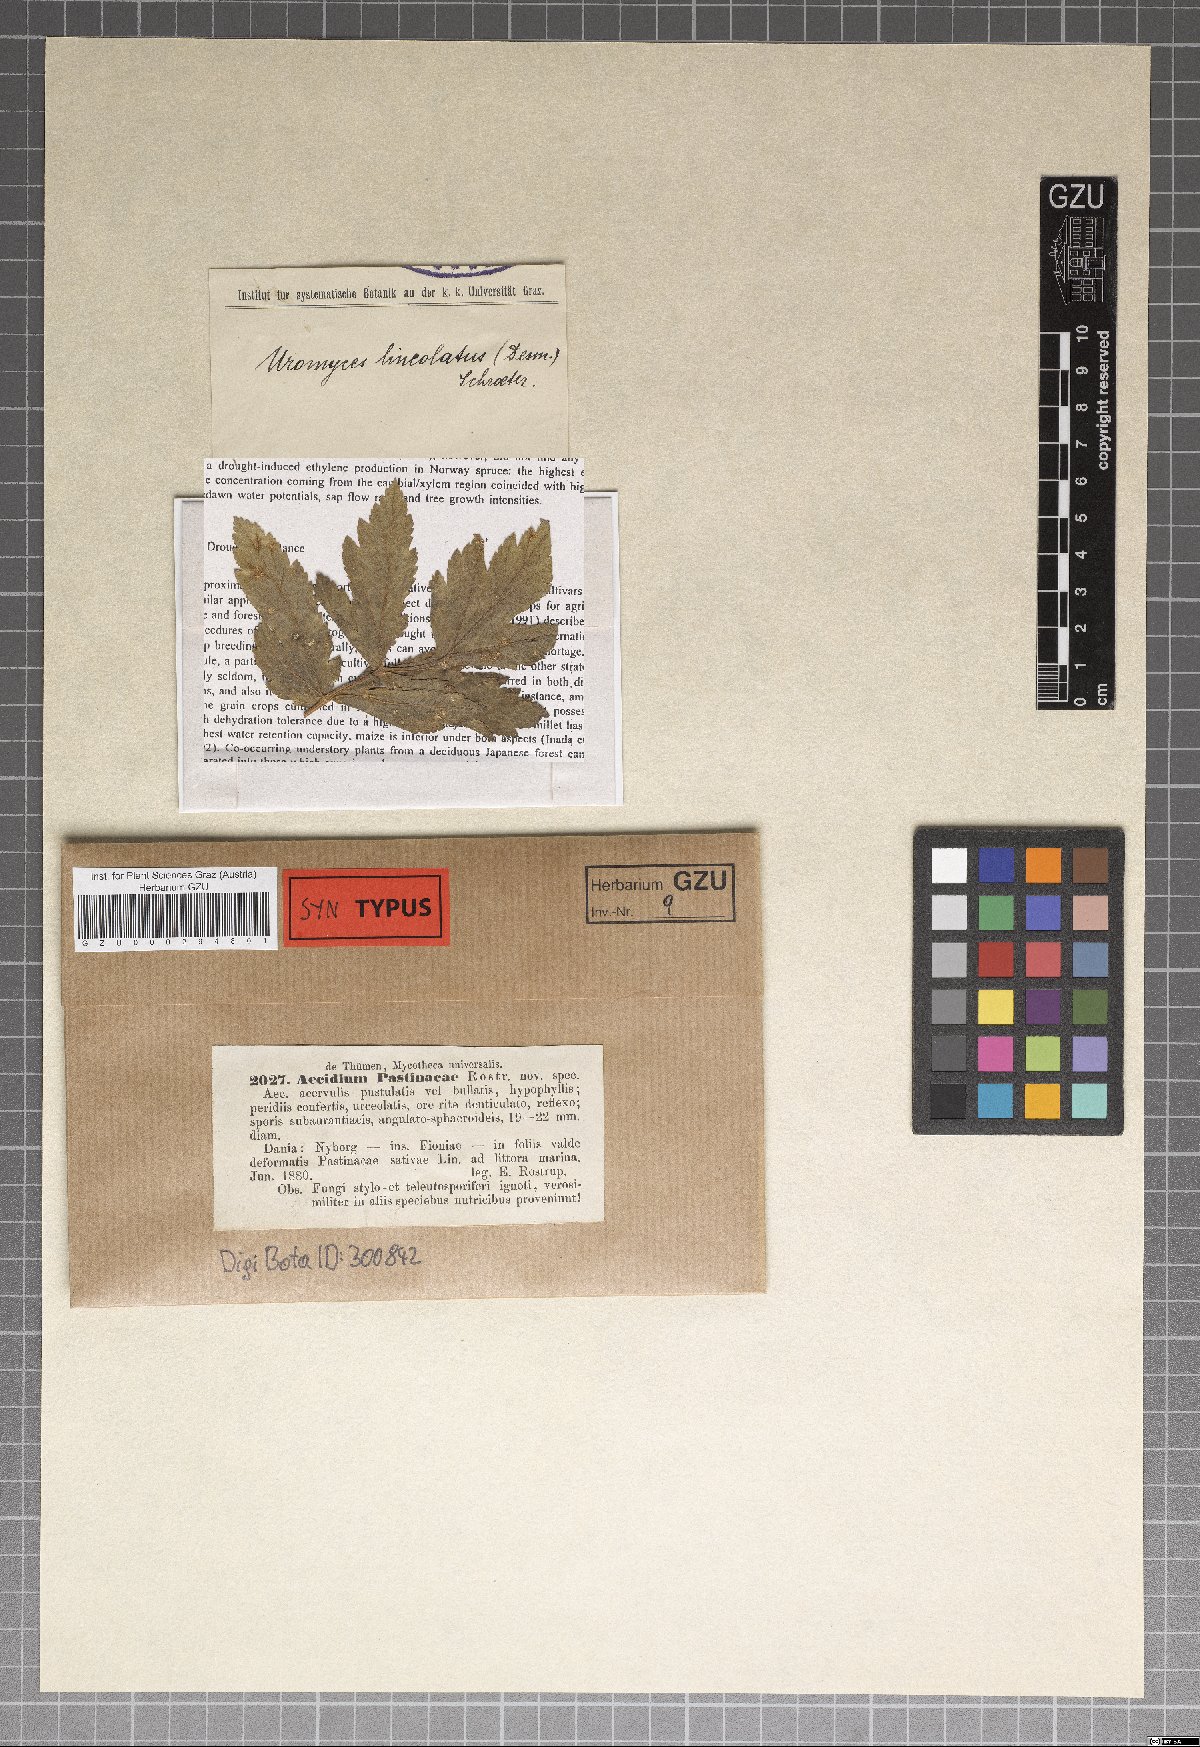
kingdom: Fungi
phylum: Basidiomycota
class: Pucciniomycetes
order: Pucciniales
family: Pucciniaceae
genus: Uromyces
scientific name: Uromyces lineolatus
